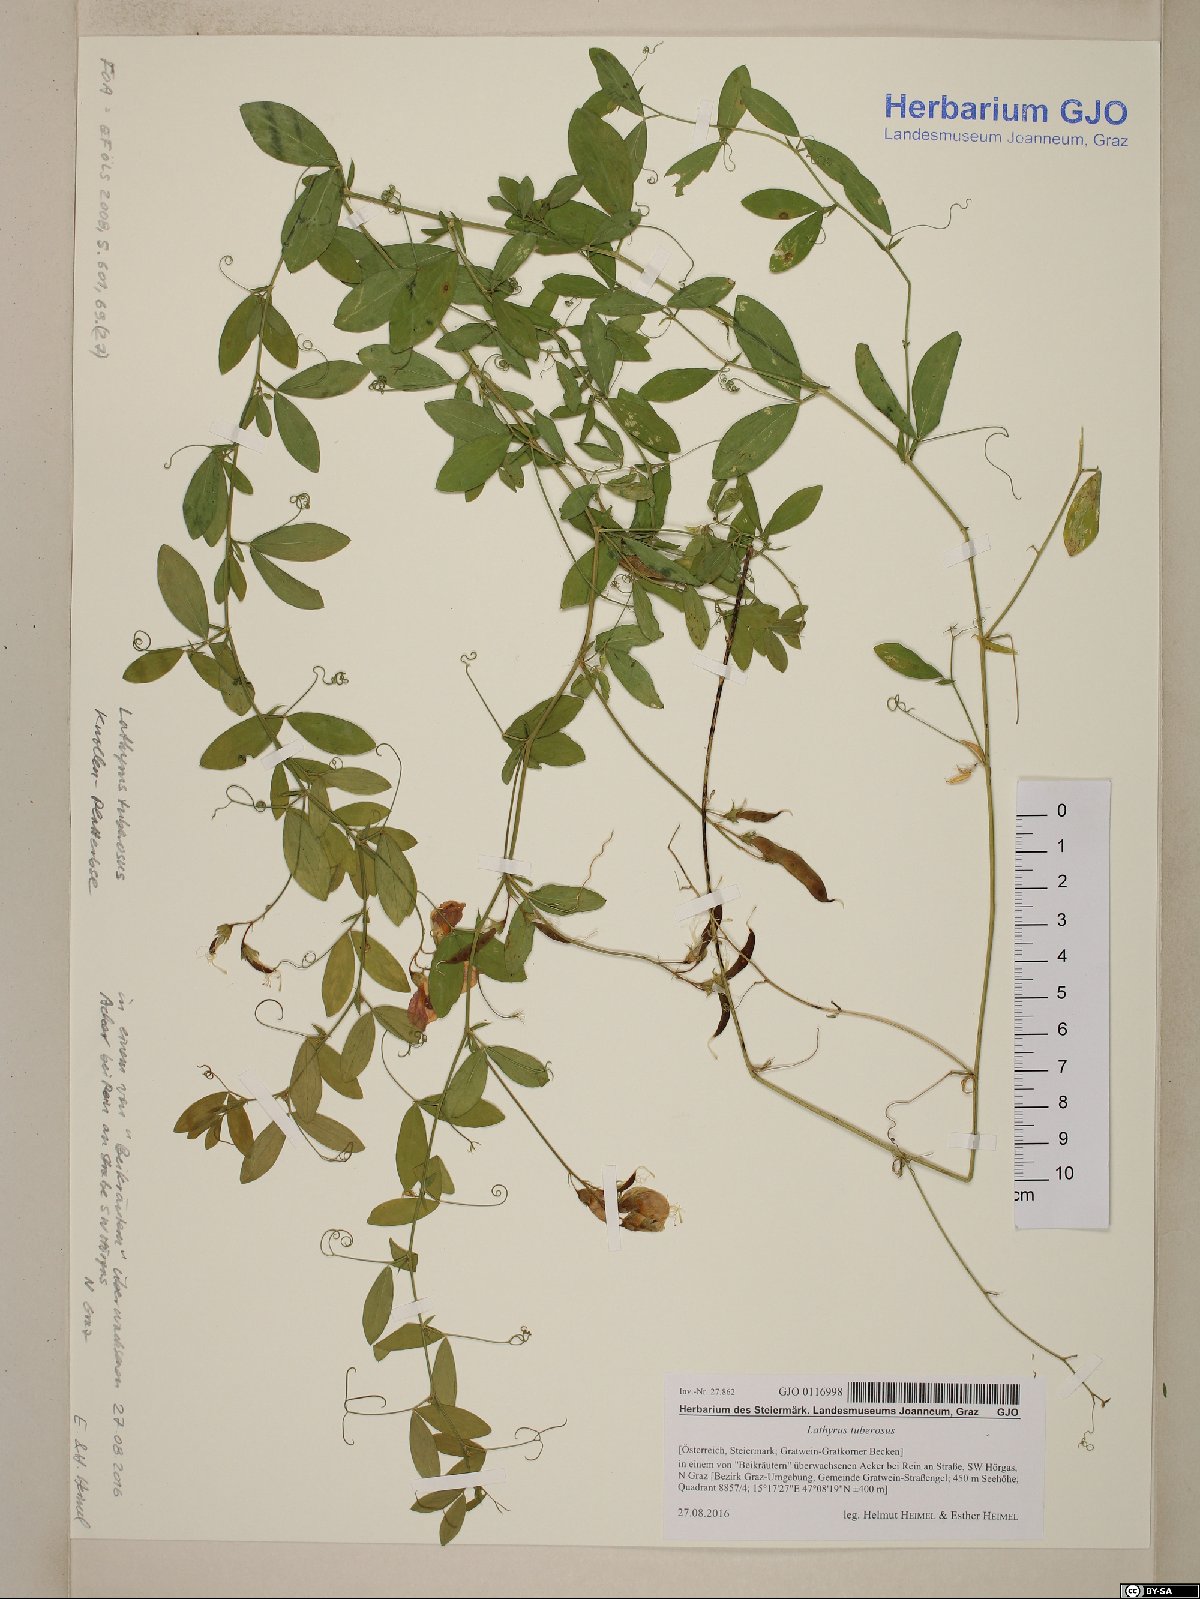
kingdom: Plantae
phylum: Tracheophyta
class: Magnoliopsida
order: Fabales
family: Fabaceae
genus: Lathyrus
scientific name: Lathyrus tuberosus
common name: Tuberous pea
